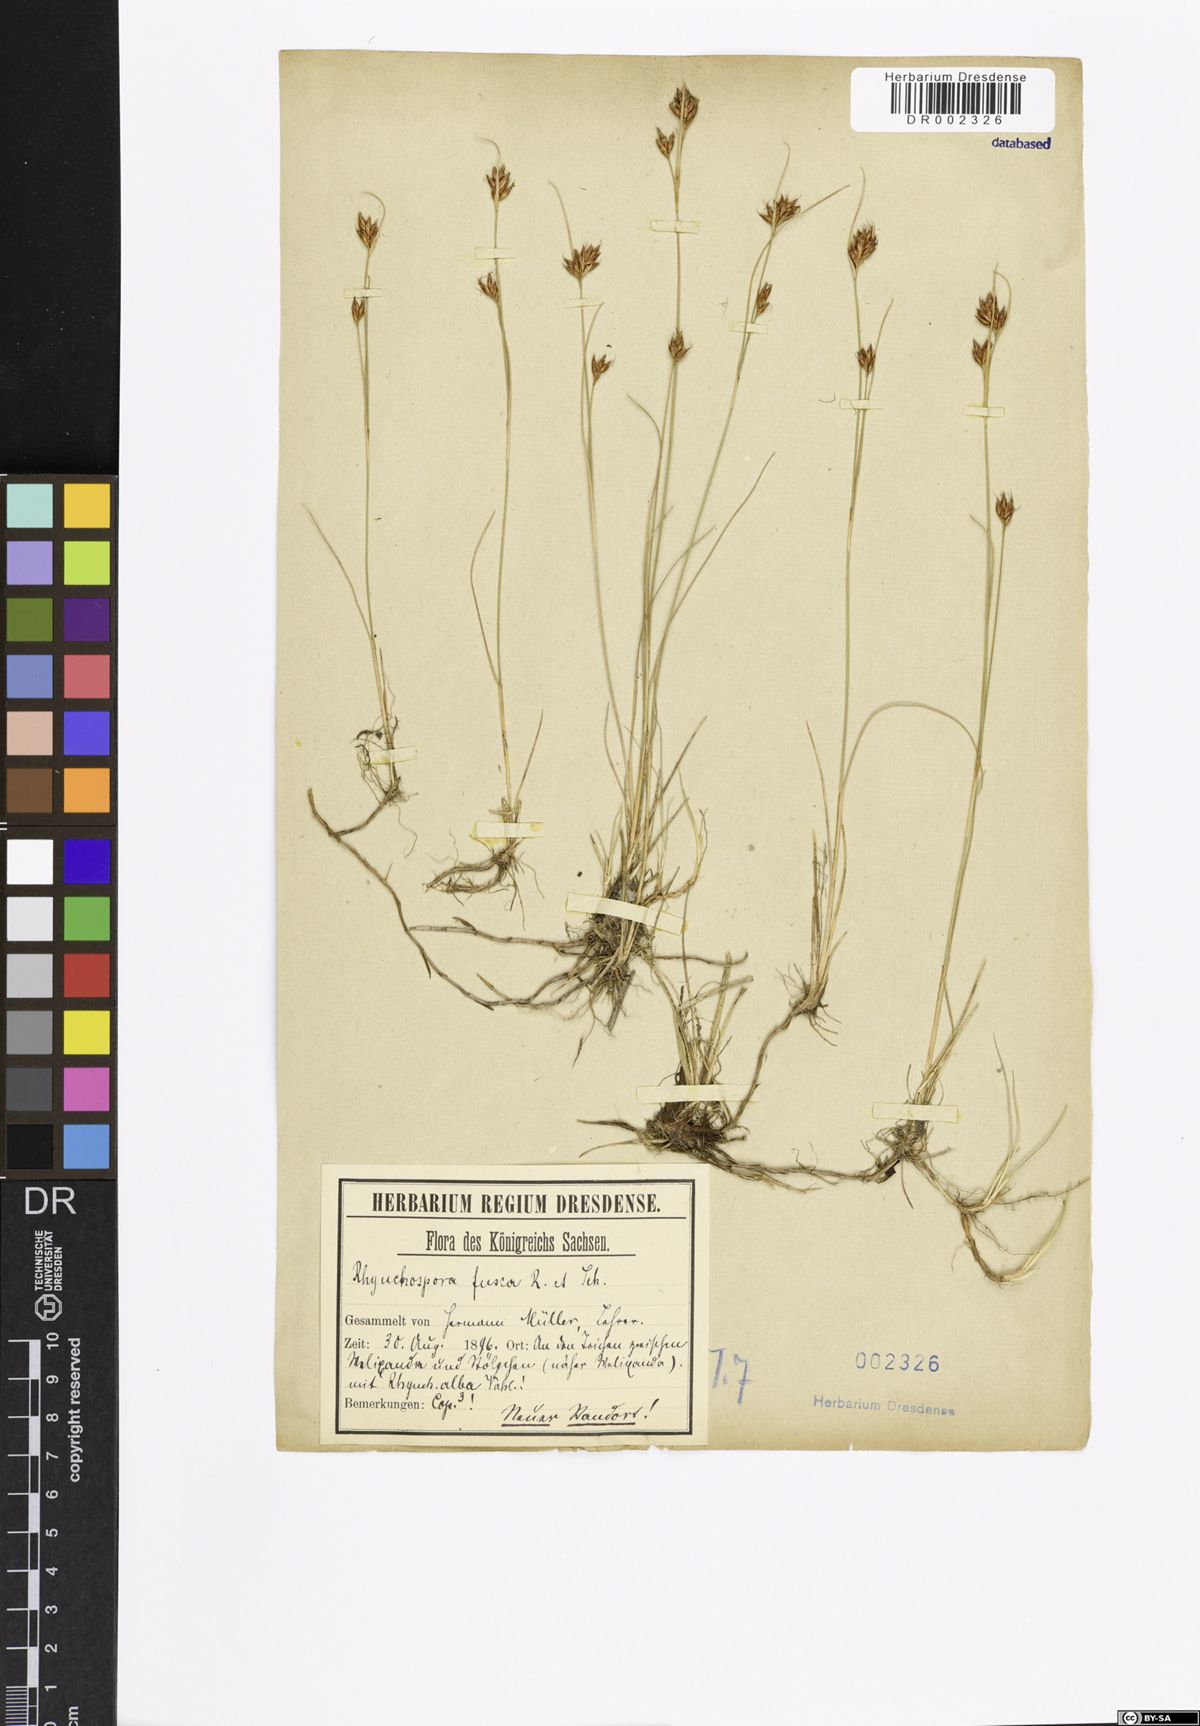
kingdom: Plantae
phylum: Tracheophyta
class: Liliopsida
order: Poales
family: Cyperaceae
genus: Rhynchospora
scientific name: Rhynchospora fusca
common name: Brown beak-sedge
